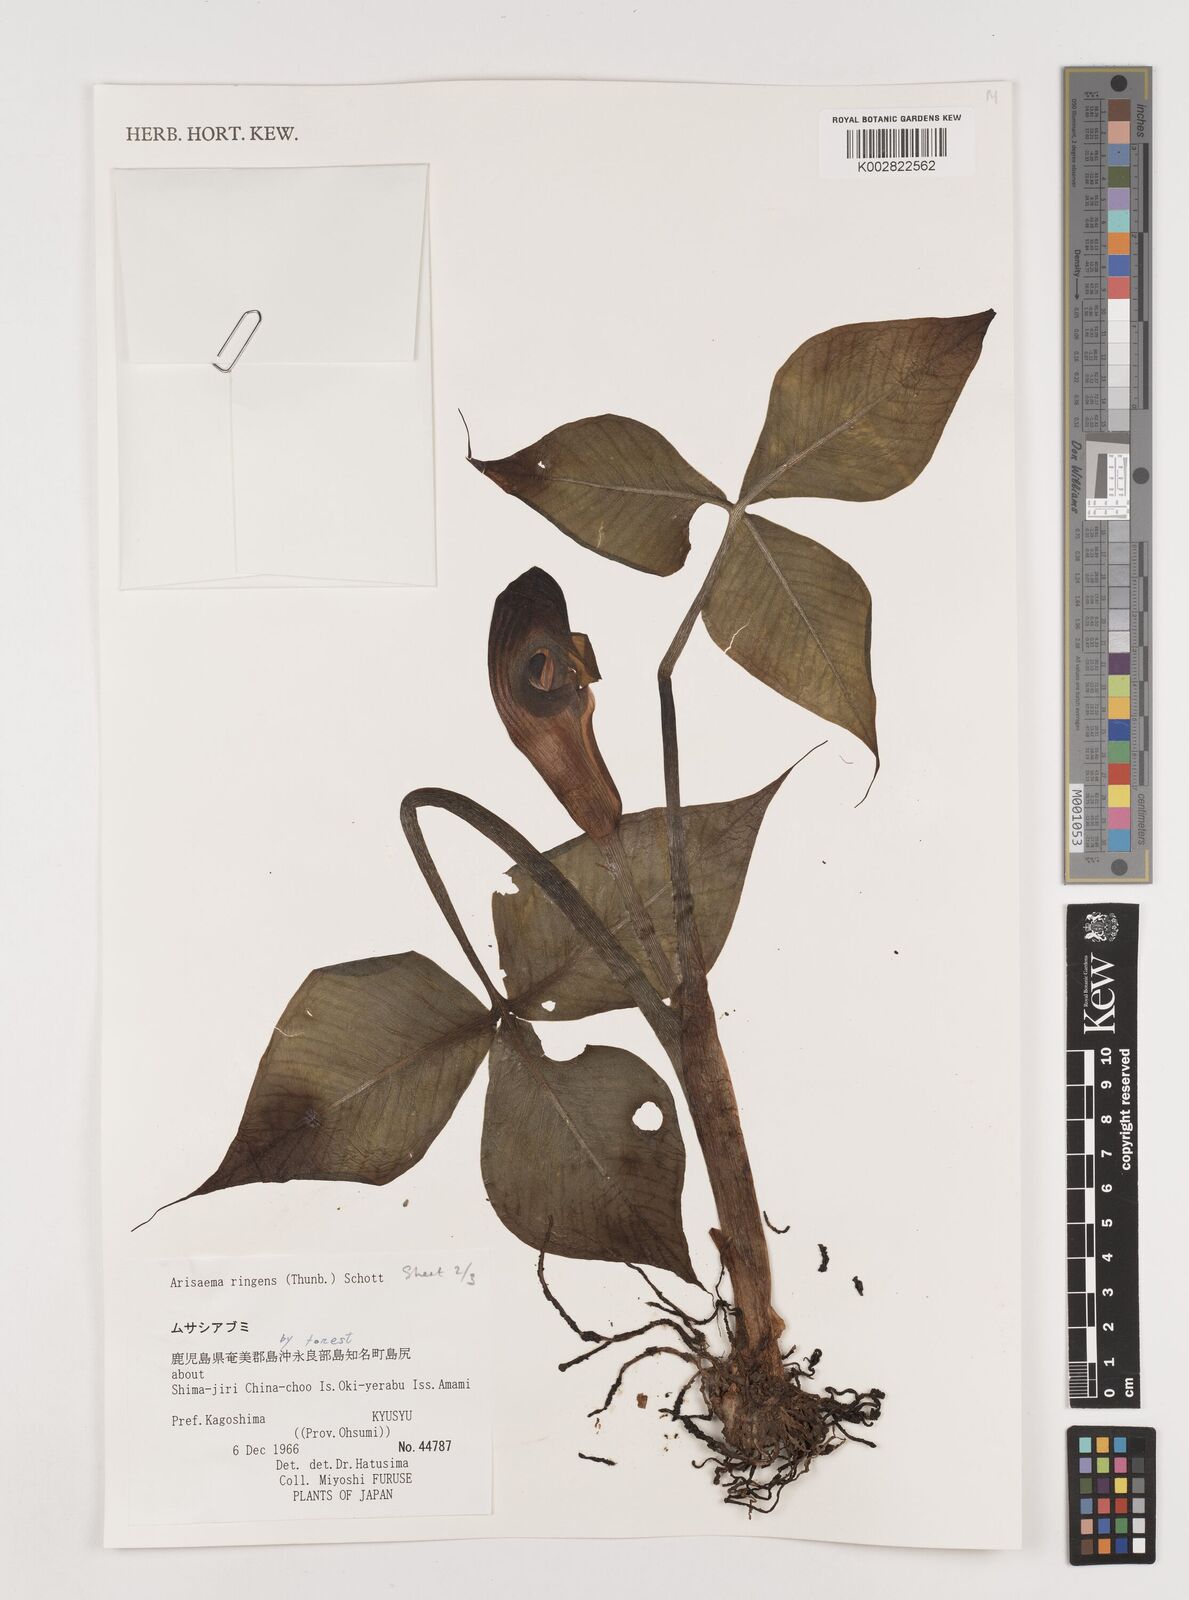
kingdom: Plantae
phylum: Tracheophyta
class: Liliopsida
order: Alismatales
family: Araceae
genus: Arisaema
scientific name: Arisaema ringens
